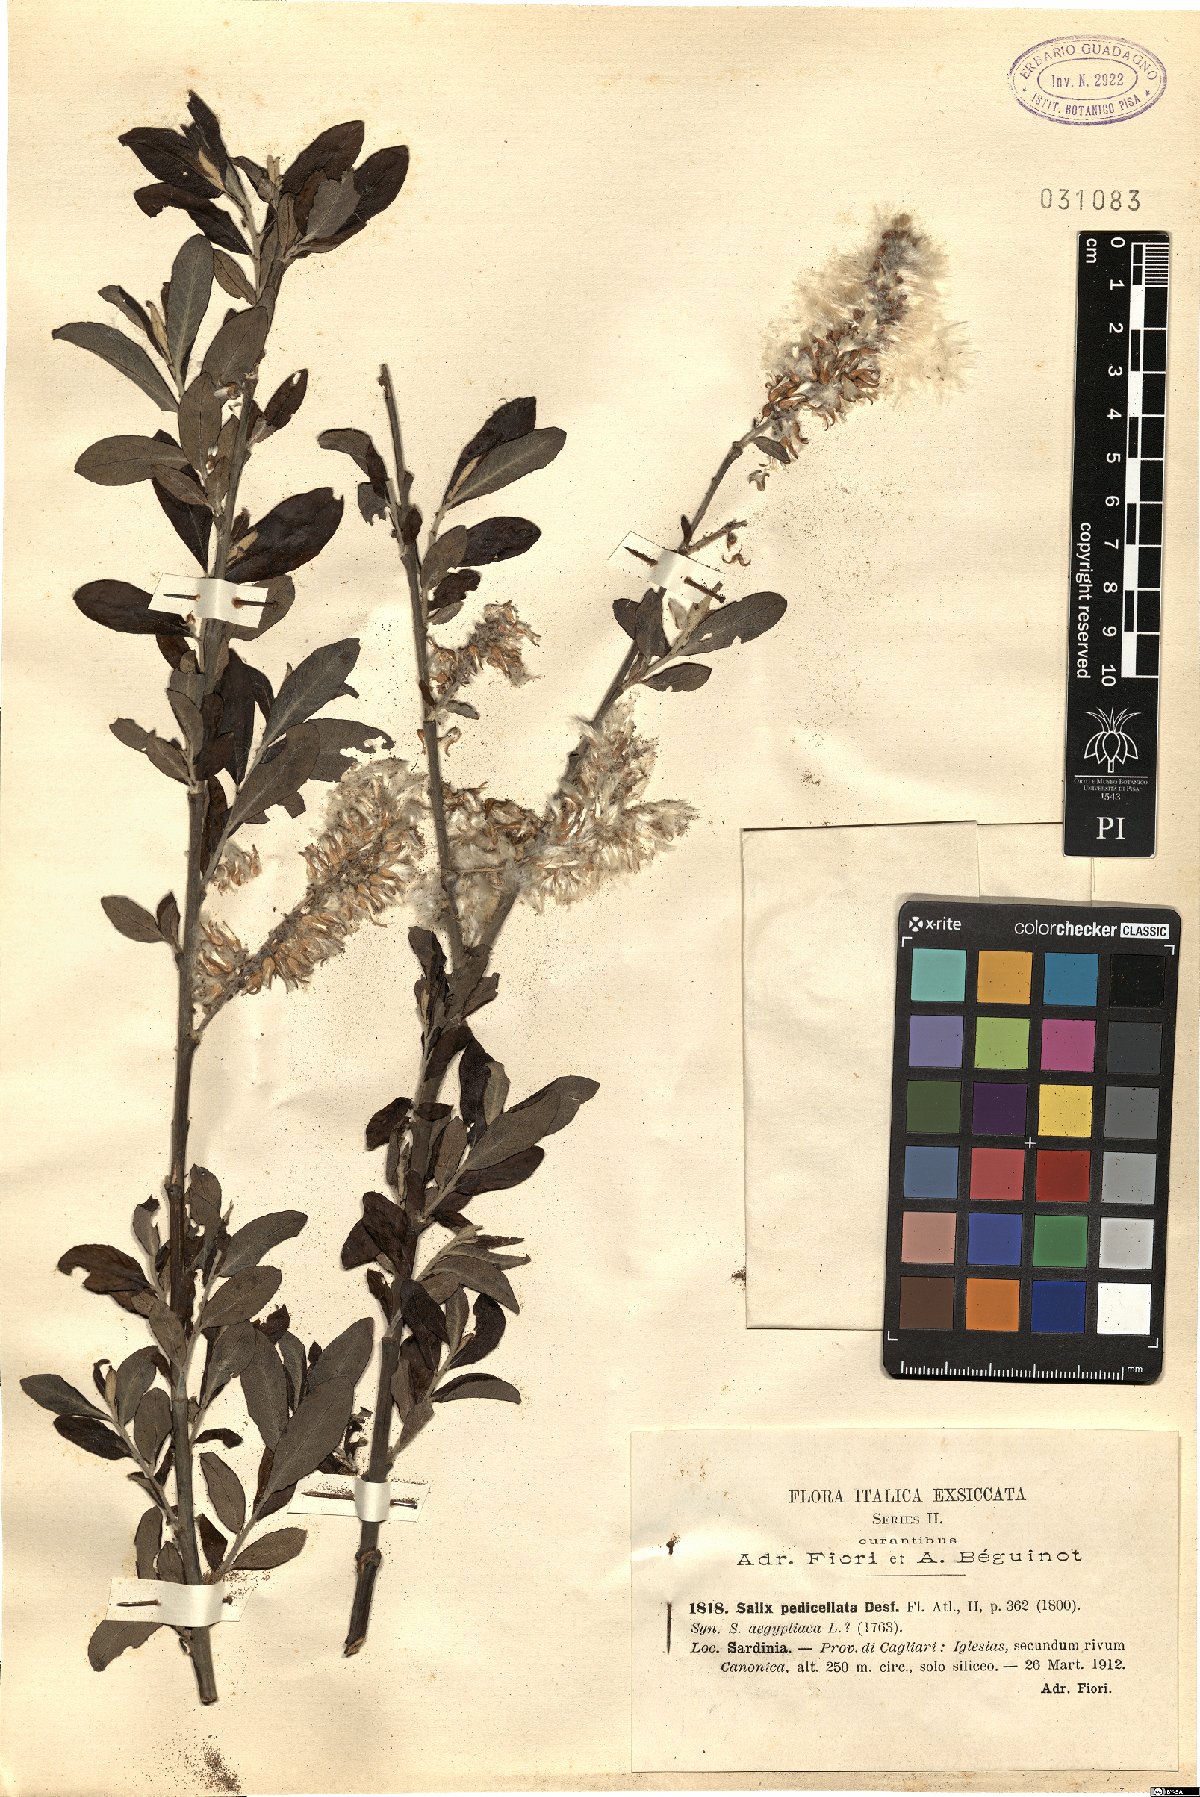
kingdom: Plantae
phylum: Tracheophyta
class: Magnoliopsida
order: Malpighiales
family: Salicaceae
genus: Salix
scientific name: Salix pedicellata
